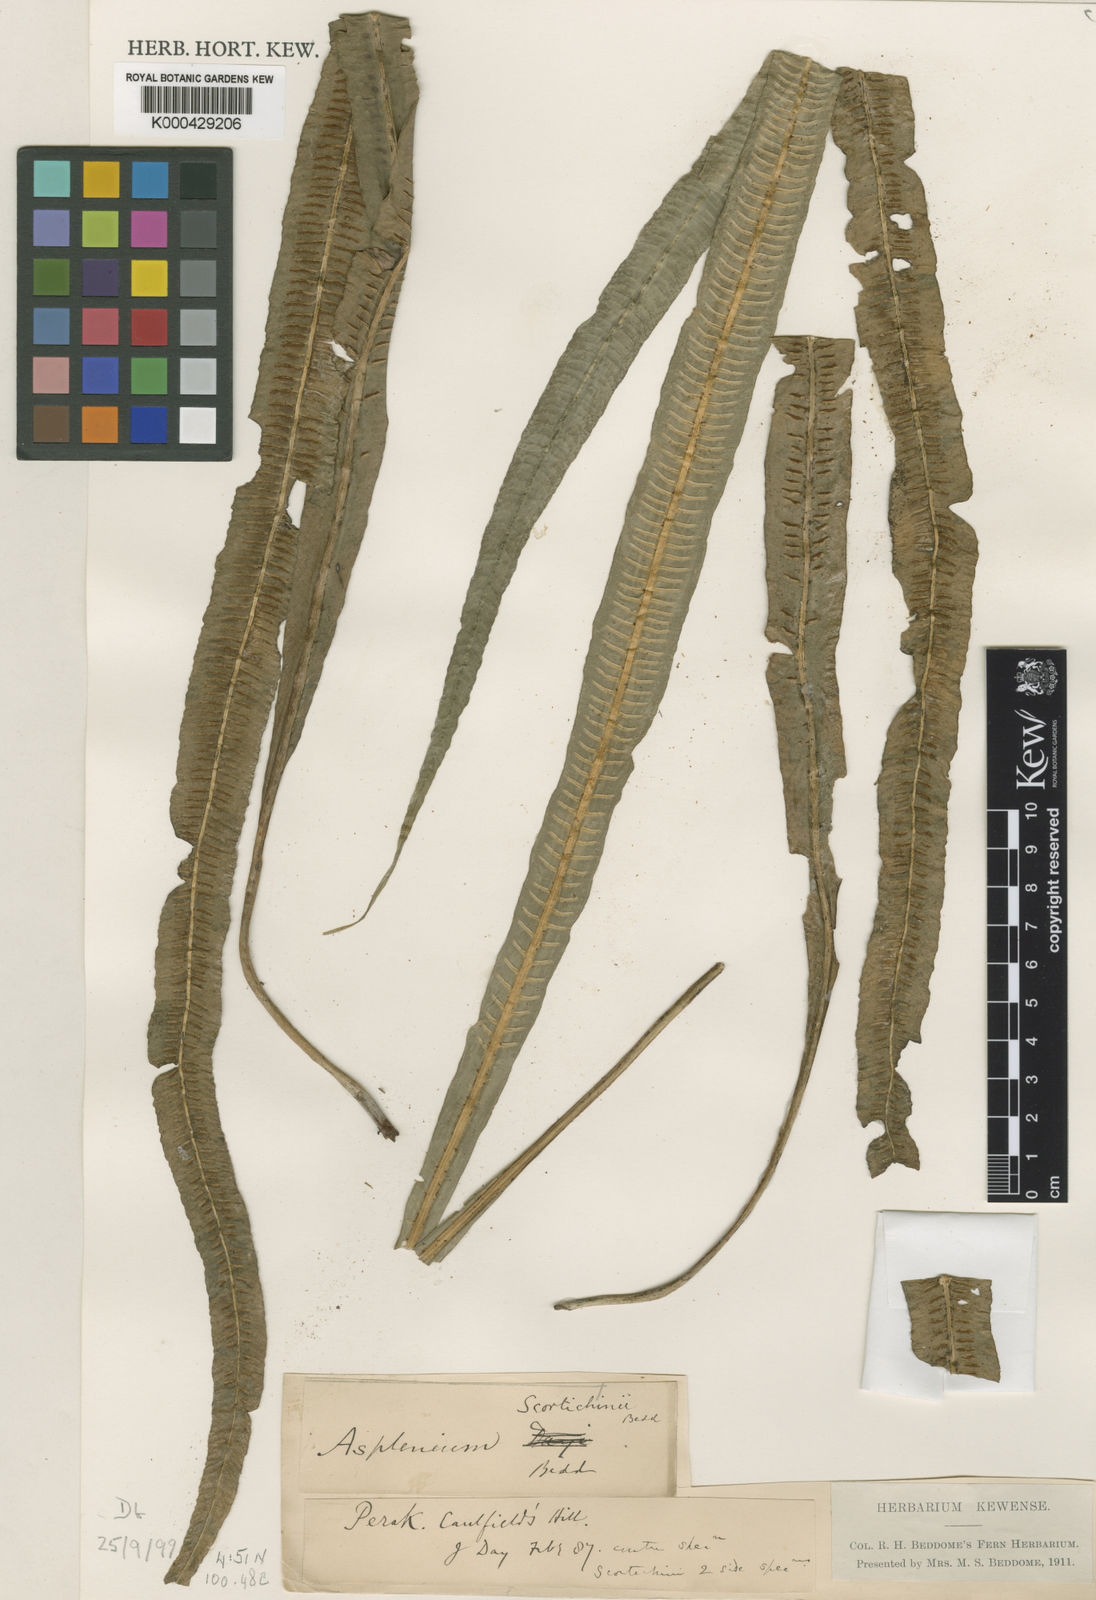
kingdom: Plantae
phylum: Tracheophyta
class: Polypodiopsida
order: Polypodiales
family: Aspleniaceae
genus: Asplenium
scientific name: Asplenium scortechinii
